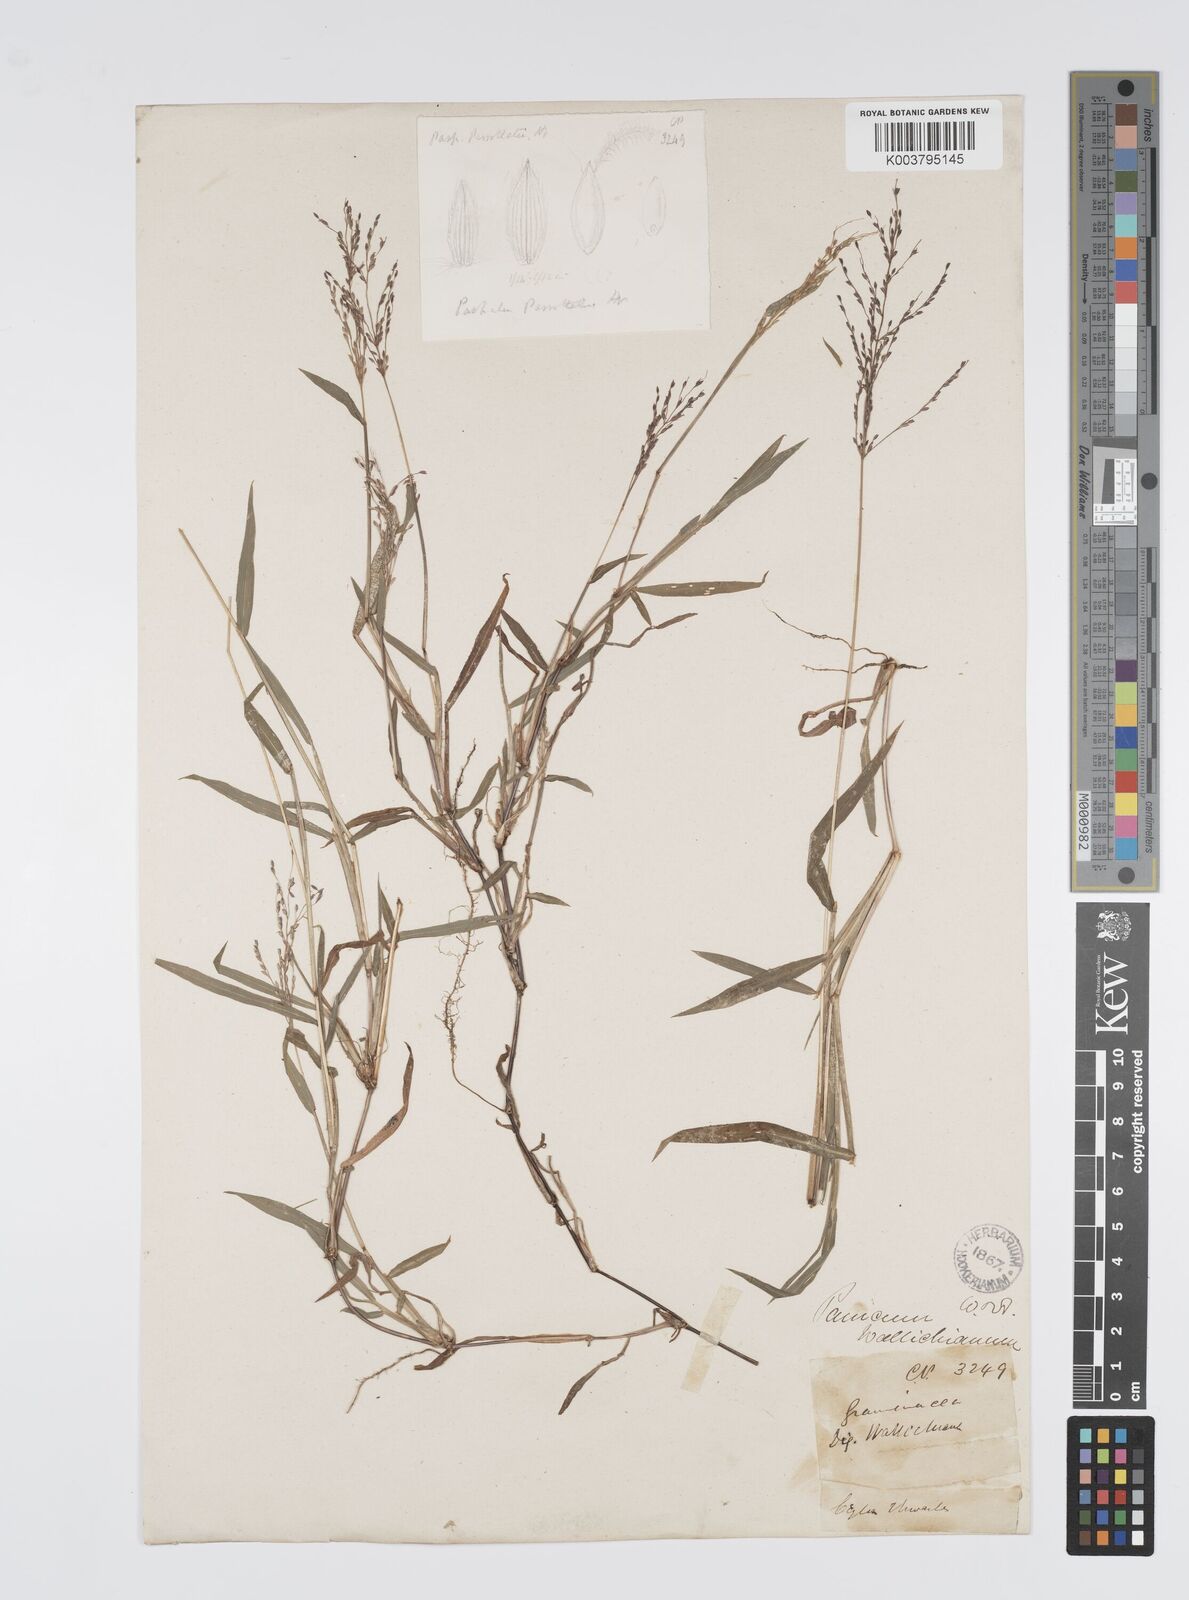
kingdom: Plantae
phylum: Tracheophyta
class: Liliopsida
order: Poales
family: Poaceae
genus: Digitaria
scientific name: Digitaria wallichiana
